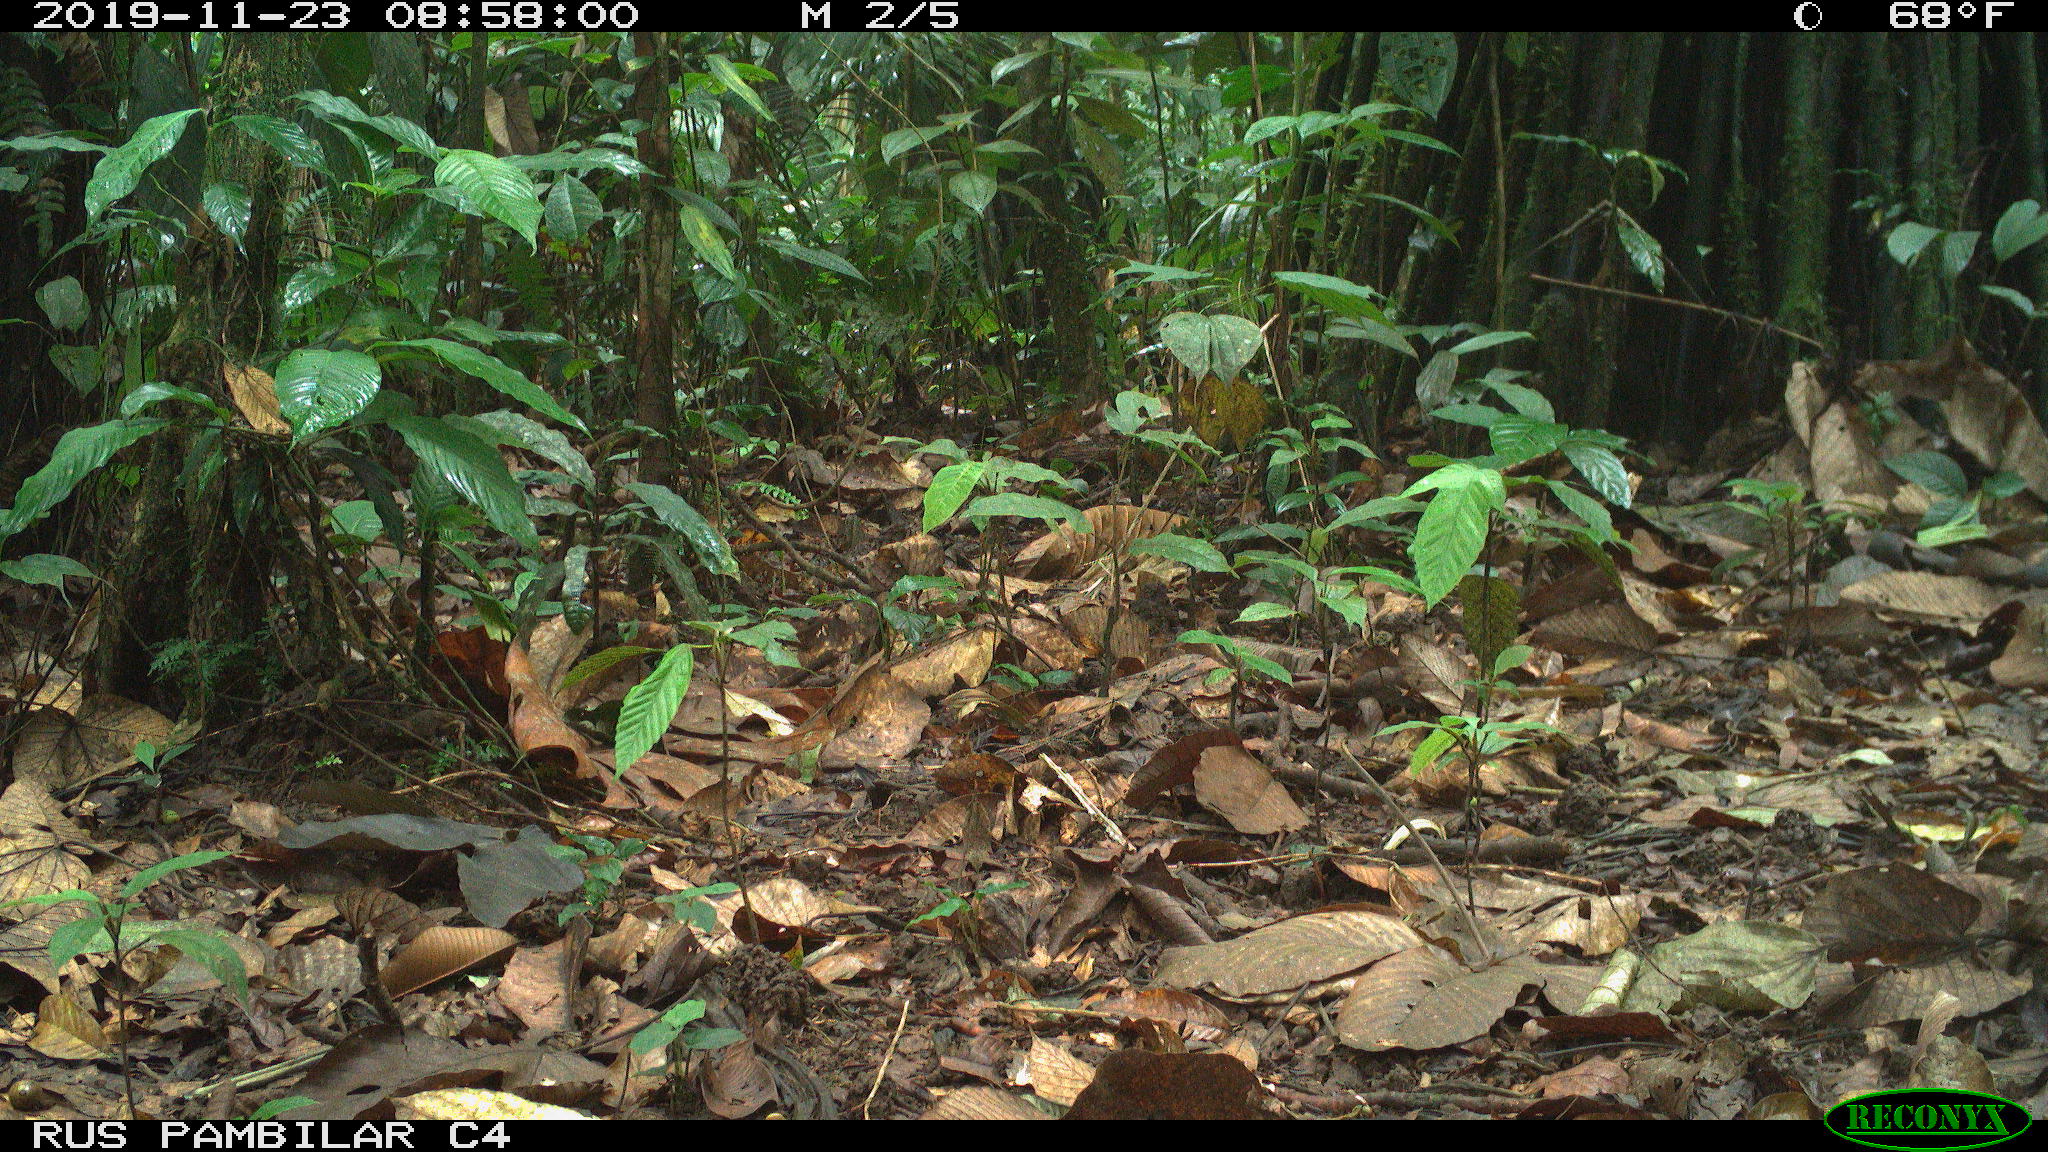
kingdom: Animalia
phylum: Chordata
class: Mammalia
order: Rodentia
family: Dasyproctidae
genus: Dasyprocta
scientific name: Dasyprocta punctata
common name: Central american agouti
